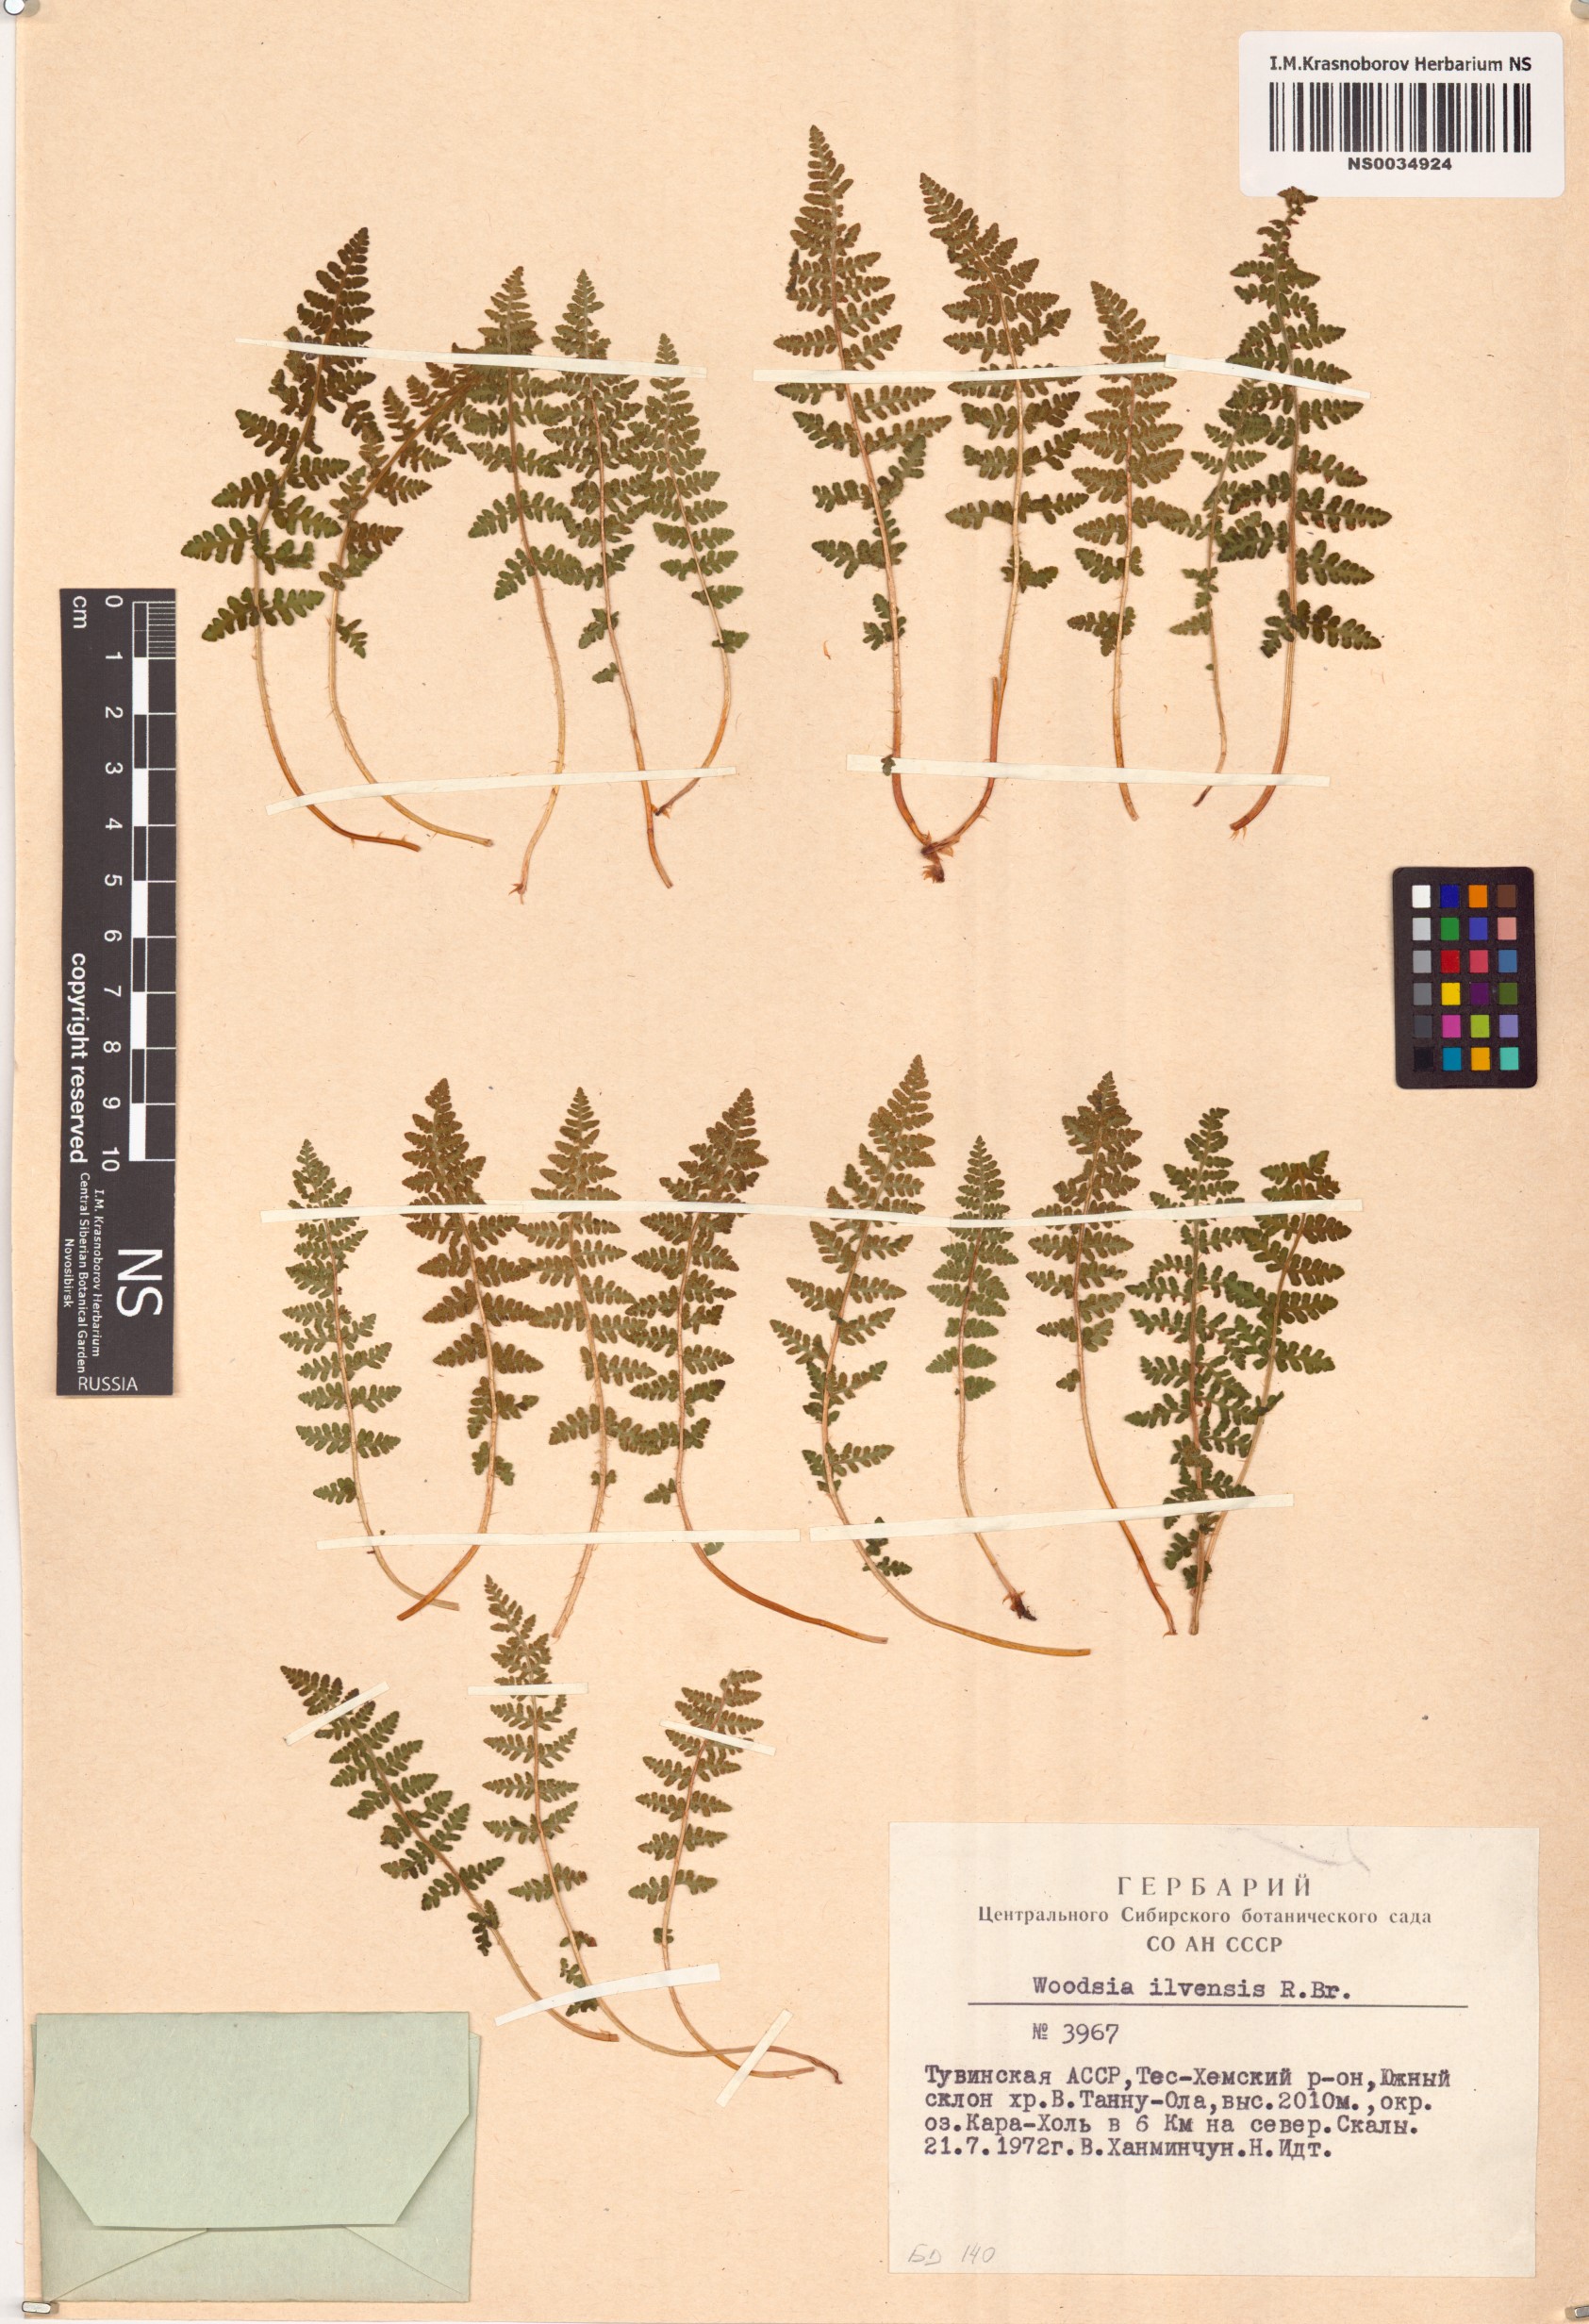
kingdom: Plantae
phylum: Tracheophyta
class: Polypodiopsida
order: Polypodiales
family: Woodsiaceae
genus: Woodsia
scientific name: Woodsia ilvensis
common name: Fragrant woodsia
